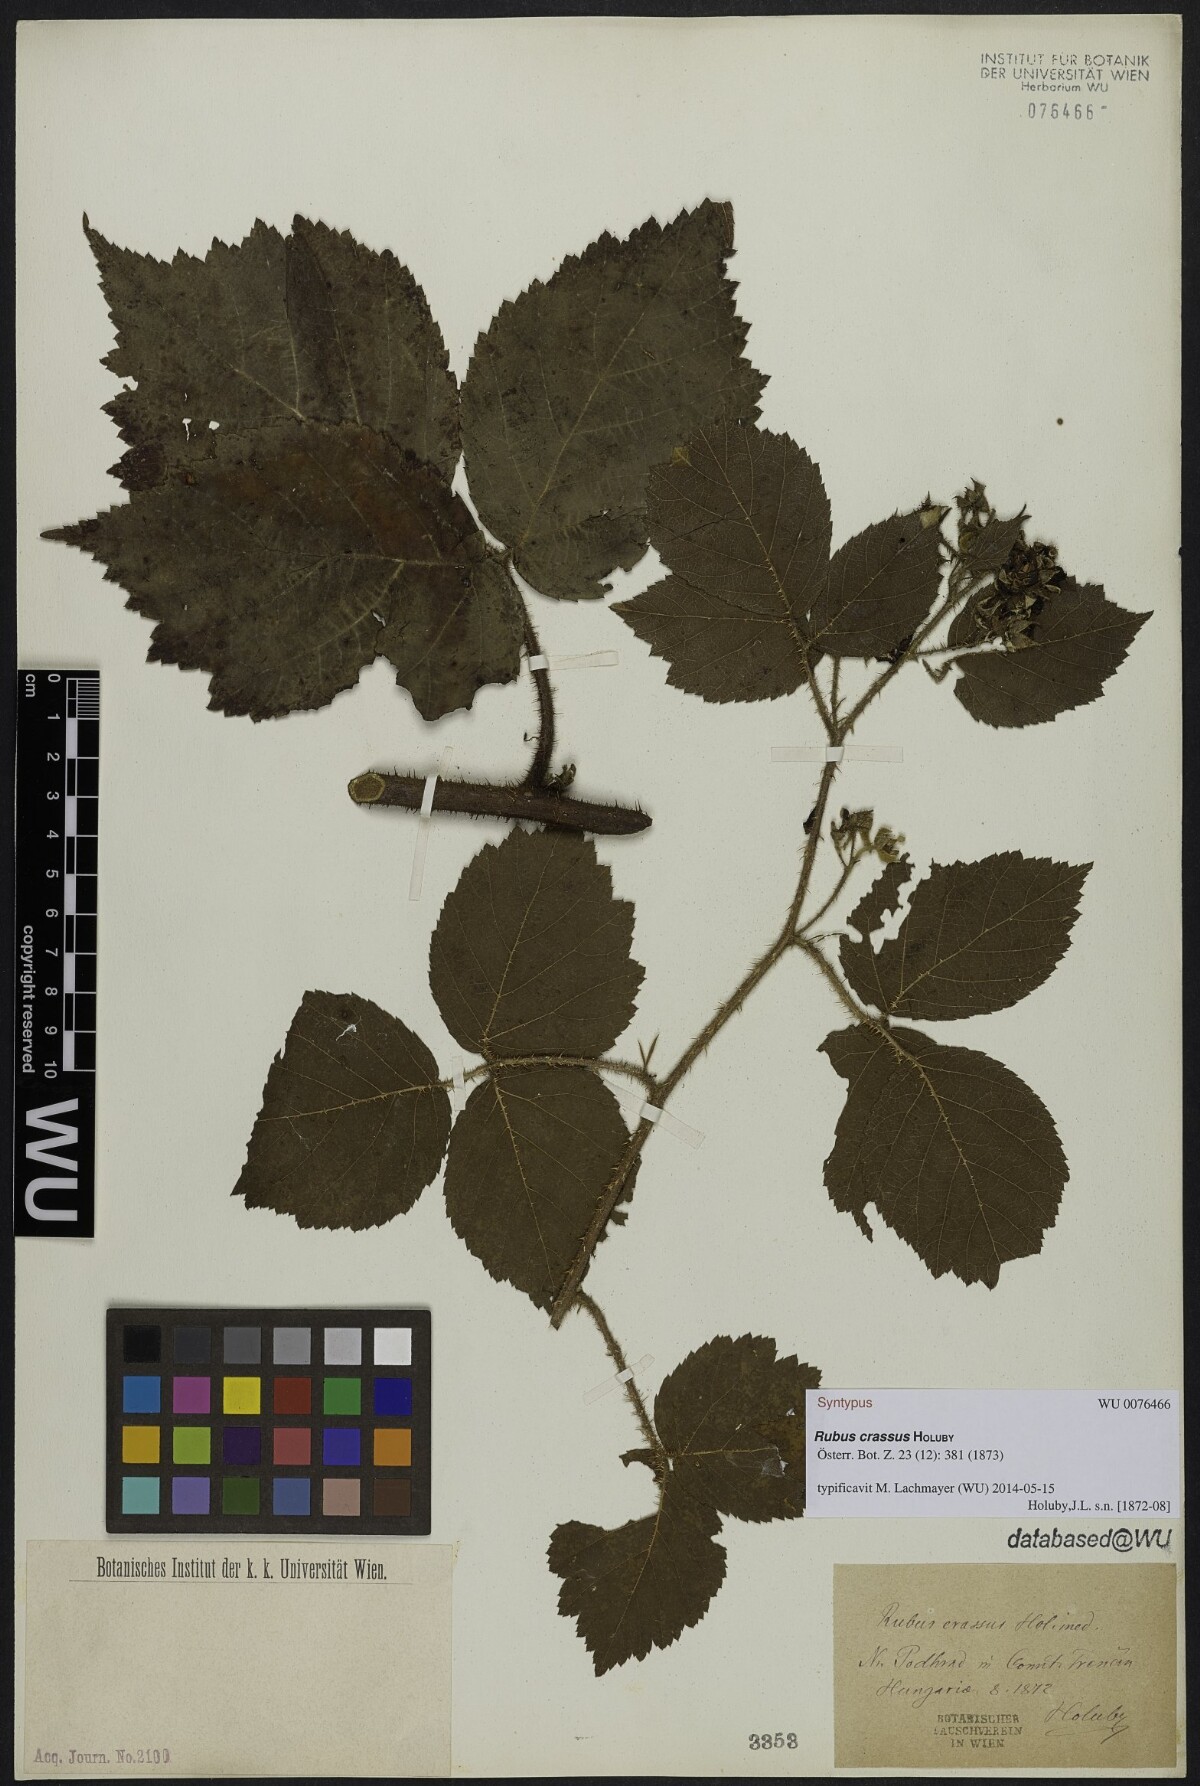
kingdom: Plantae
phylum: Tracheophyta
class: Magnoliopsida
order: Rosales
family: Rosaceae
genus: Rubus
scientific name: Rubus hirtus
